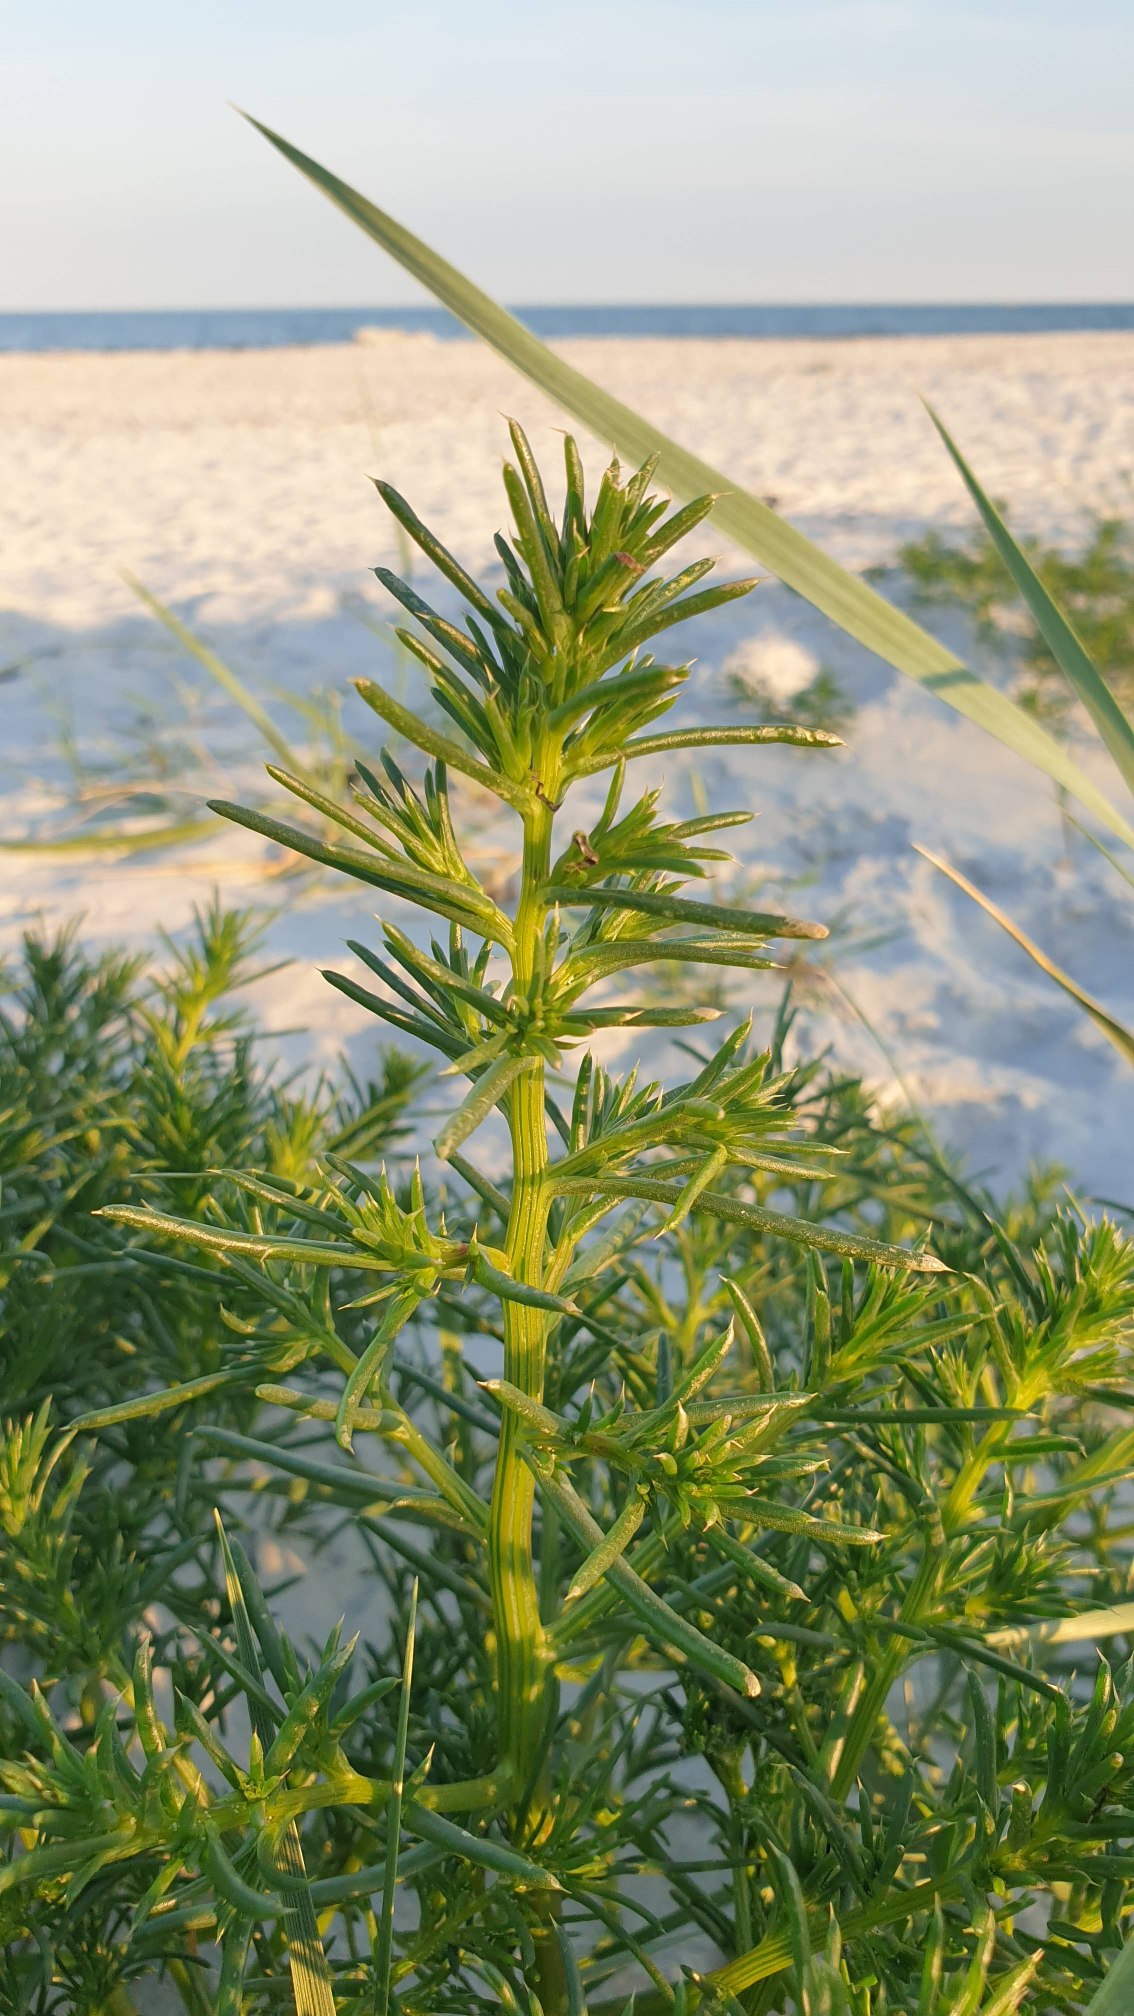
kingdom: Plantae
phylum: Tracheophyta
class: Magnoliopsida
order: Caryophyllales
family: Amaranthaceae
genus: Salsola
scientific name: Salsola kali
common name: Sodaurt
